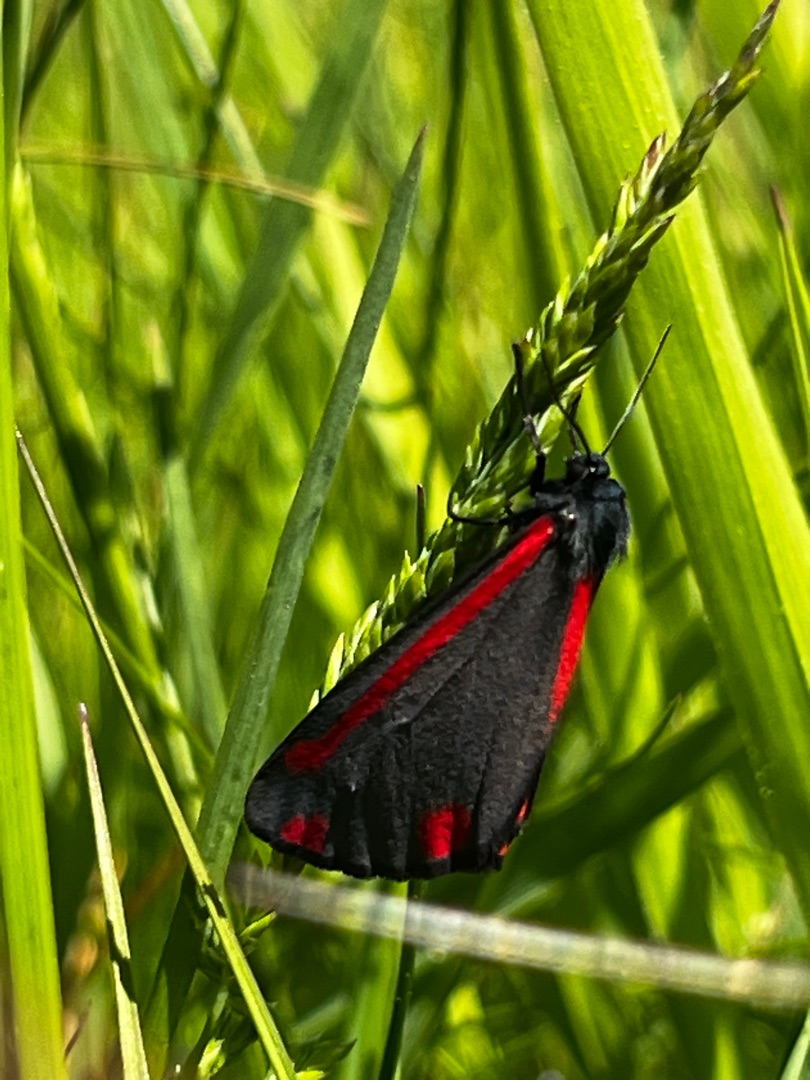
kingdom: Animalia
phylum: Arthropoda
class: Insecta
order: Lepidoptera
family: Erebidae
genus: Tyria
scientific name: Tyria jacobaeae
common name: Blodplet
